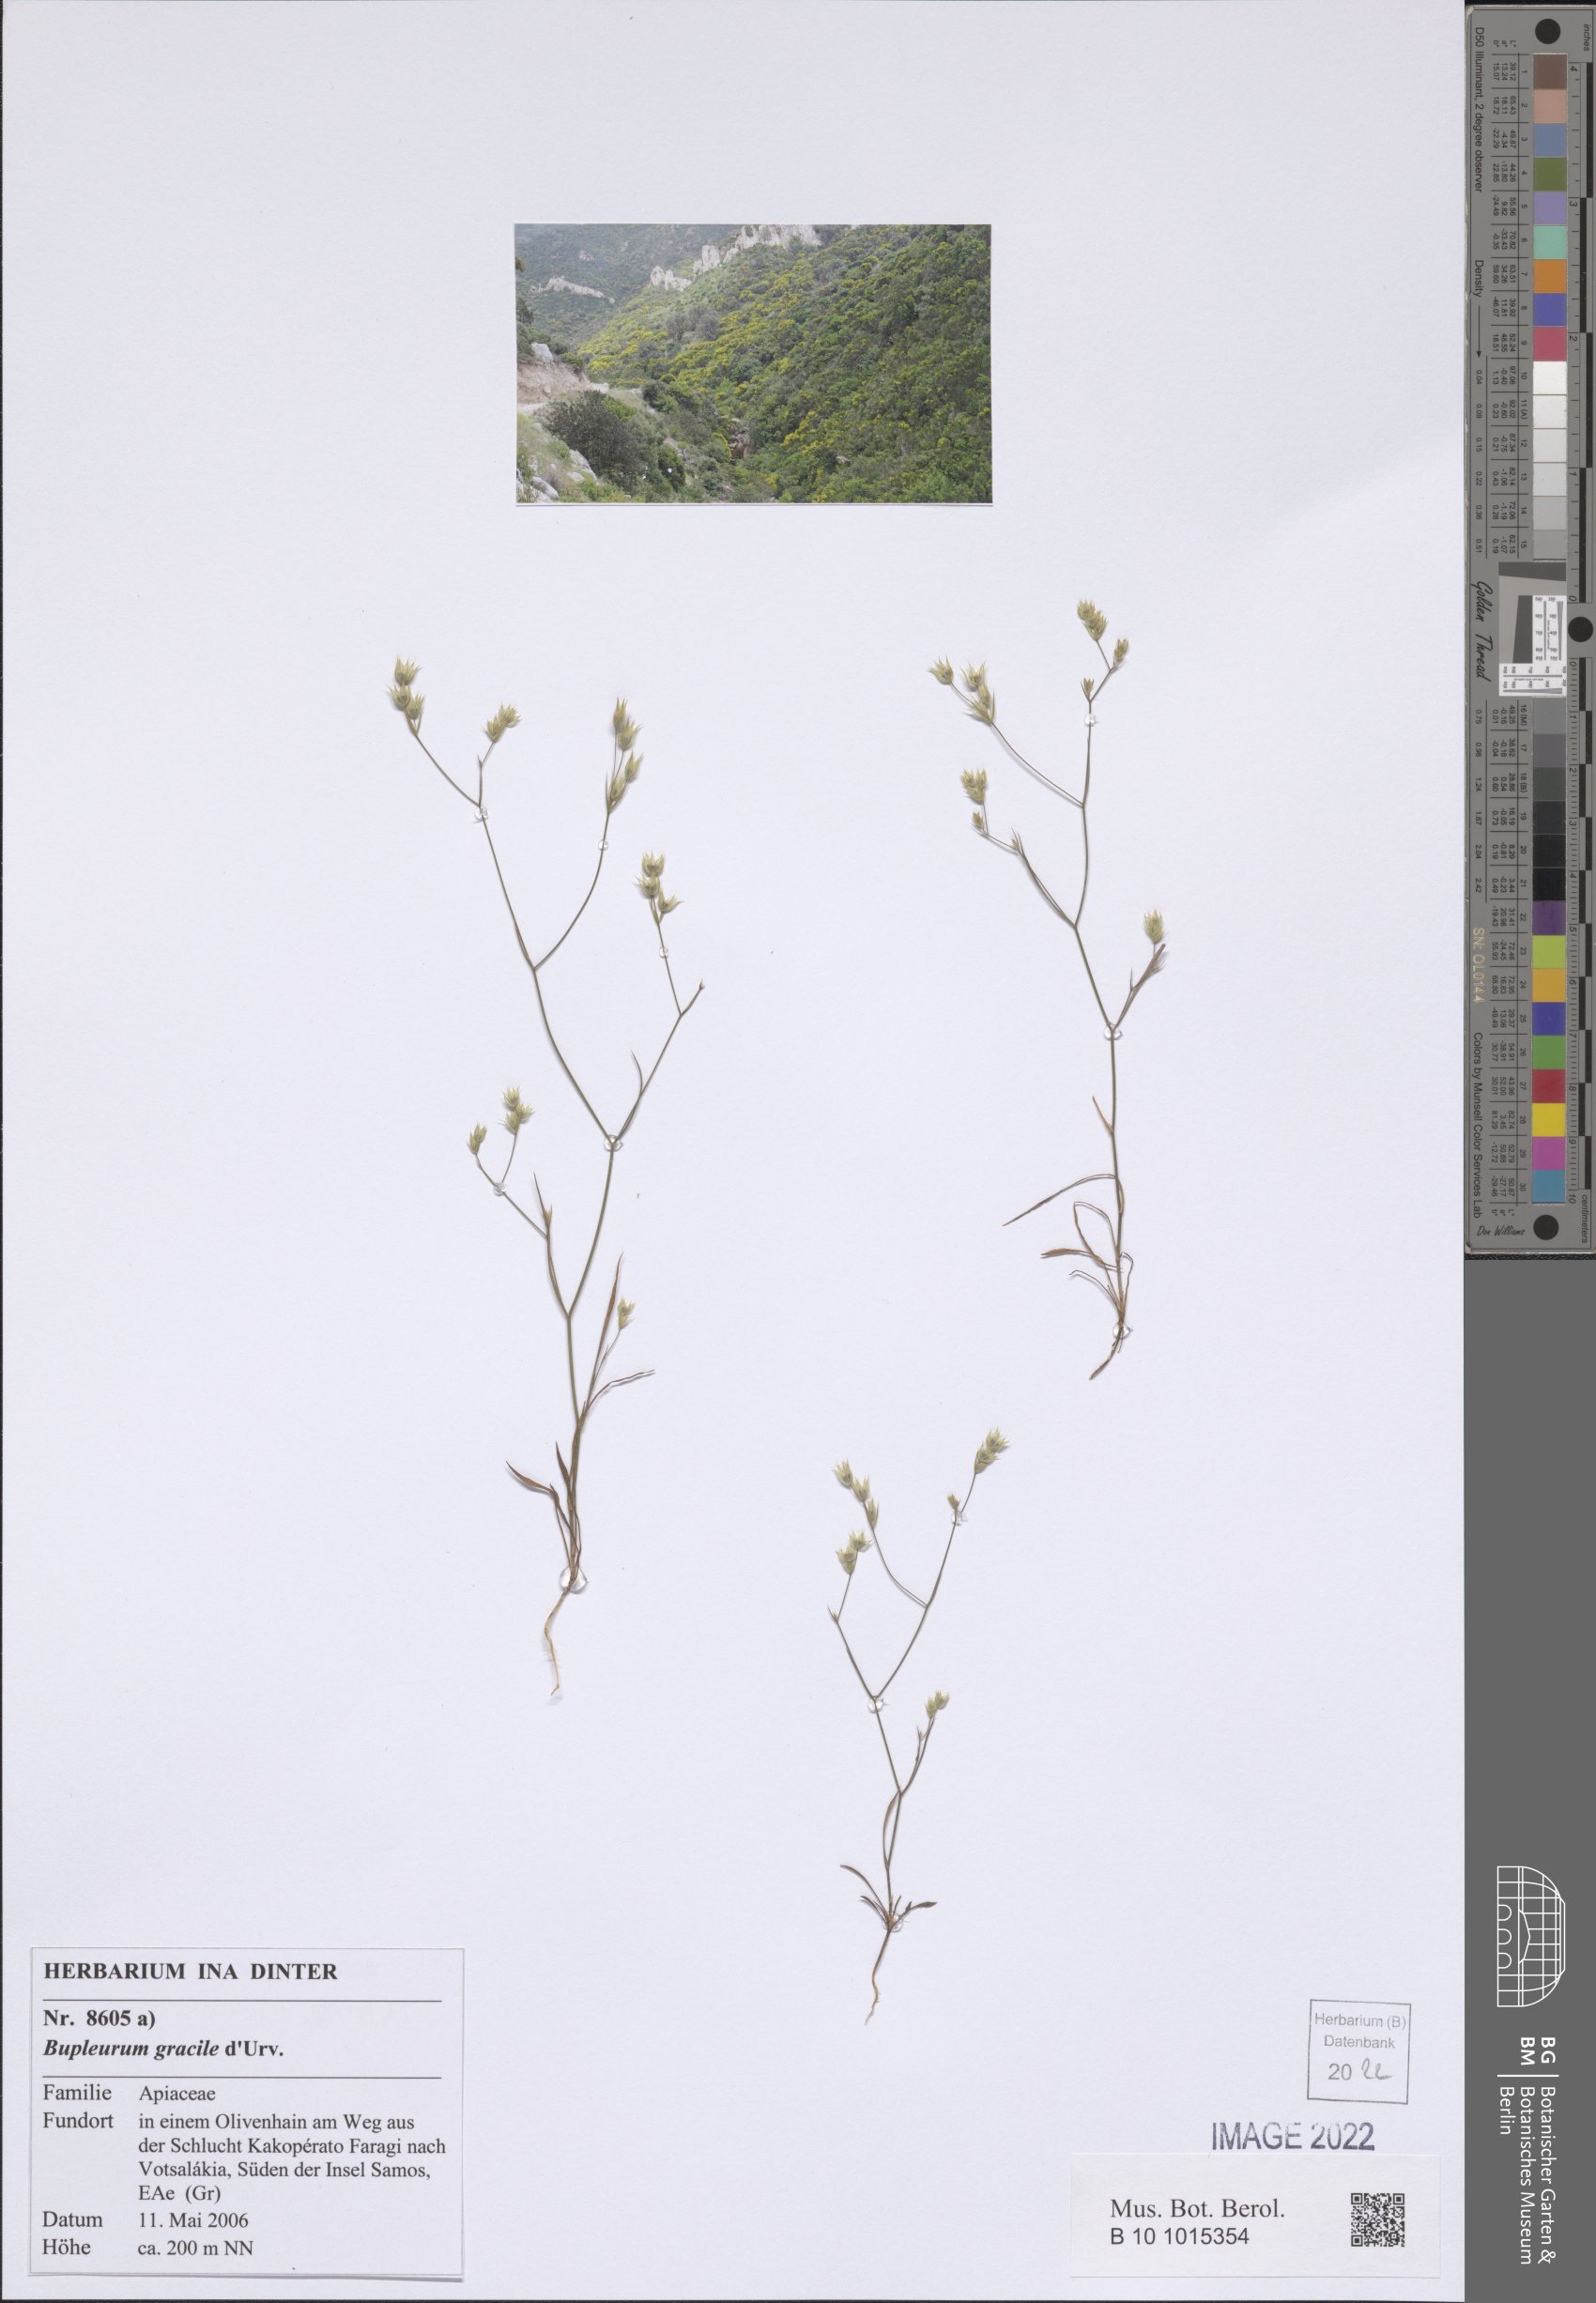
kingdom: Plantae
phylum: Tracheophyta
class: Magnoliopsida
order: Apiales
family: Apiaceae
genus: Bupleurum
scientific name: Bupleurum gracile
